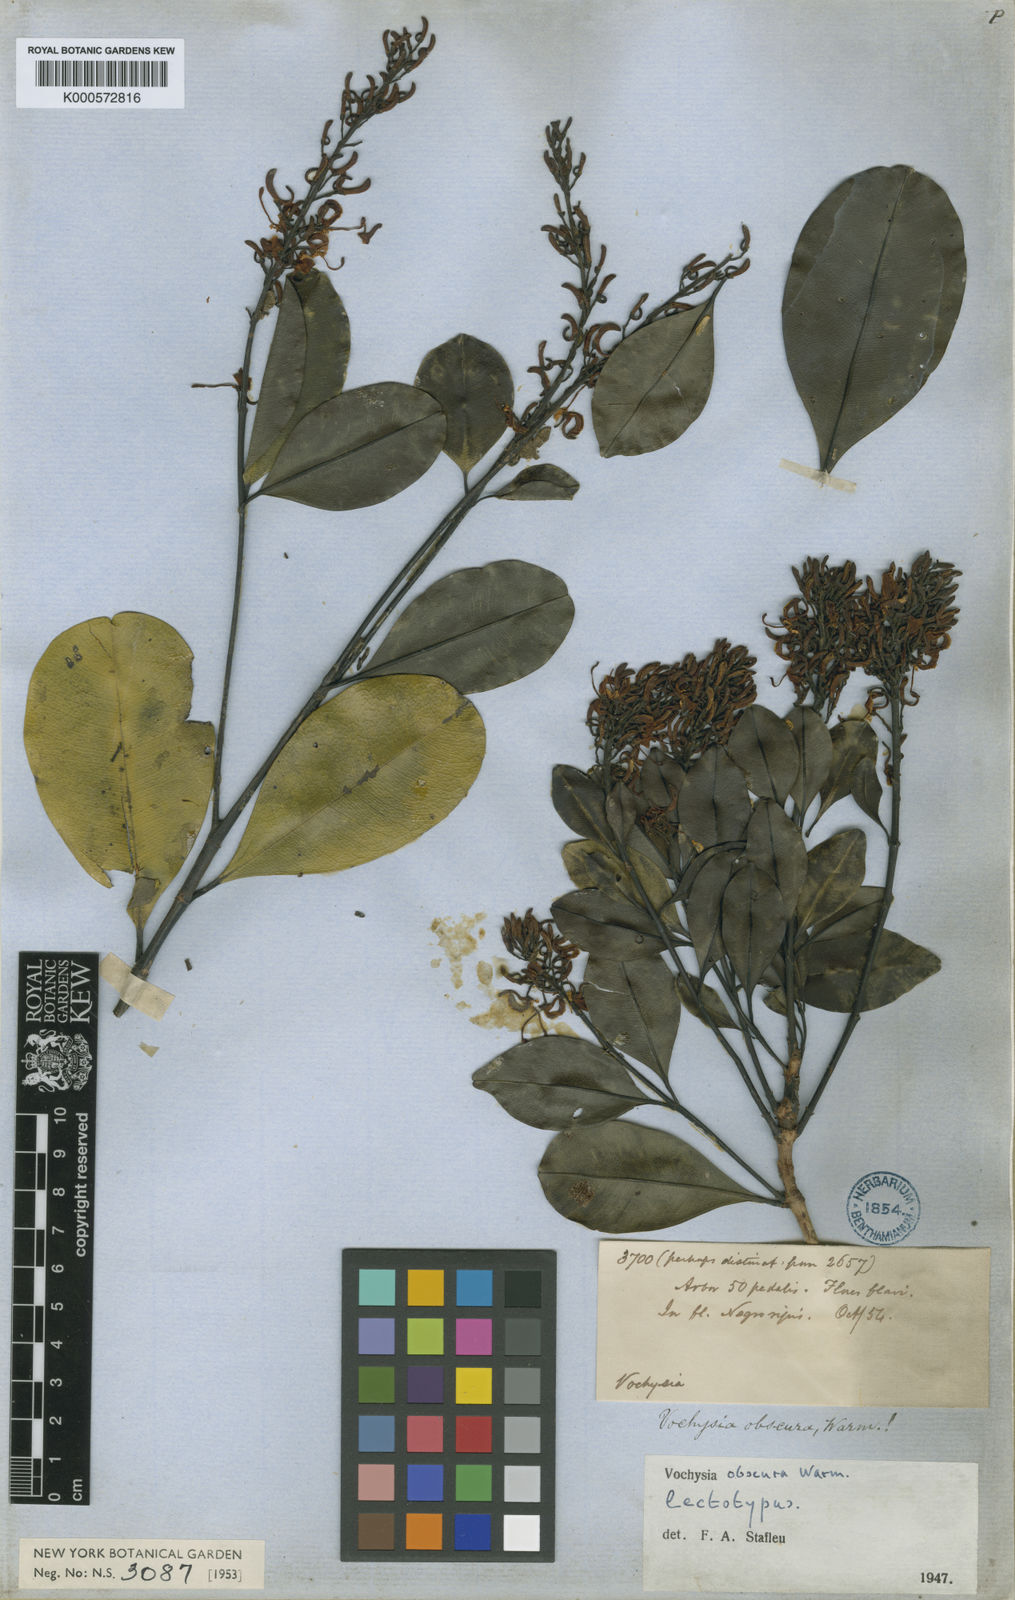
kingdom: Plantae
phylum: Tracheophyta
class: Magnoliopsida
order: Myrtales
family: Vochysiaceae
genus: Vochysia
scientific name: Vochysia obscura
